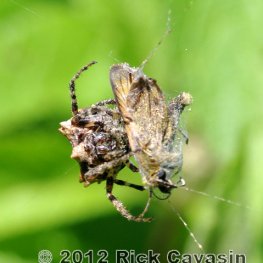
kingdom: Animalia
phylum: Arthropoda
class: Insecta
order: Lepidoptera
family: Hesperiidae
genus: Thymelicus
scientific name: Thymelicus lineola
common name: European Skipper
